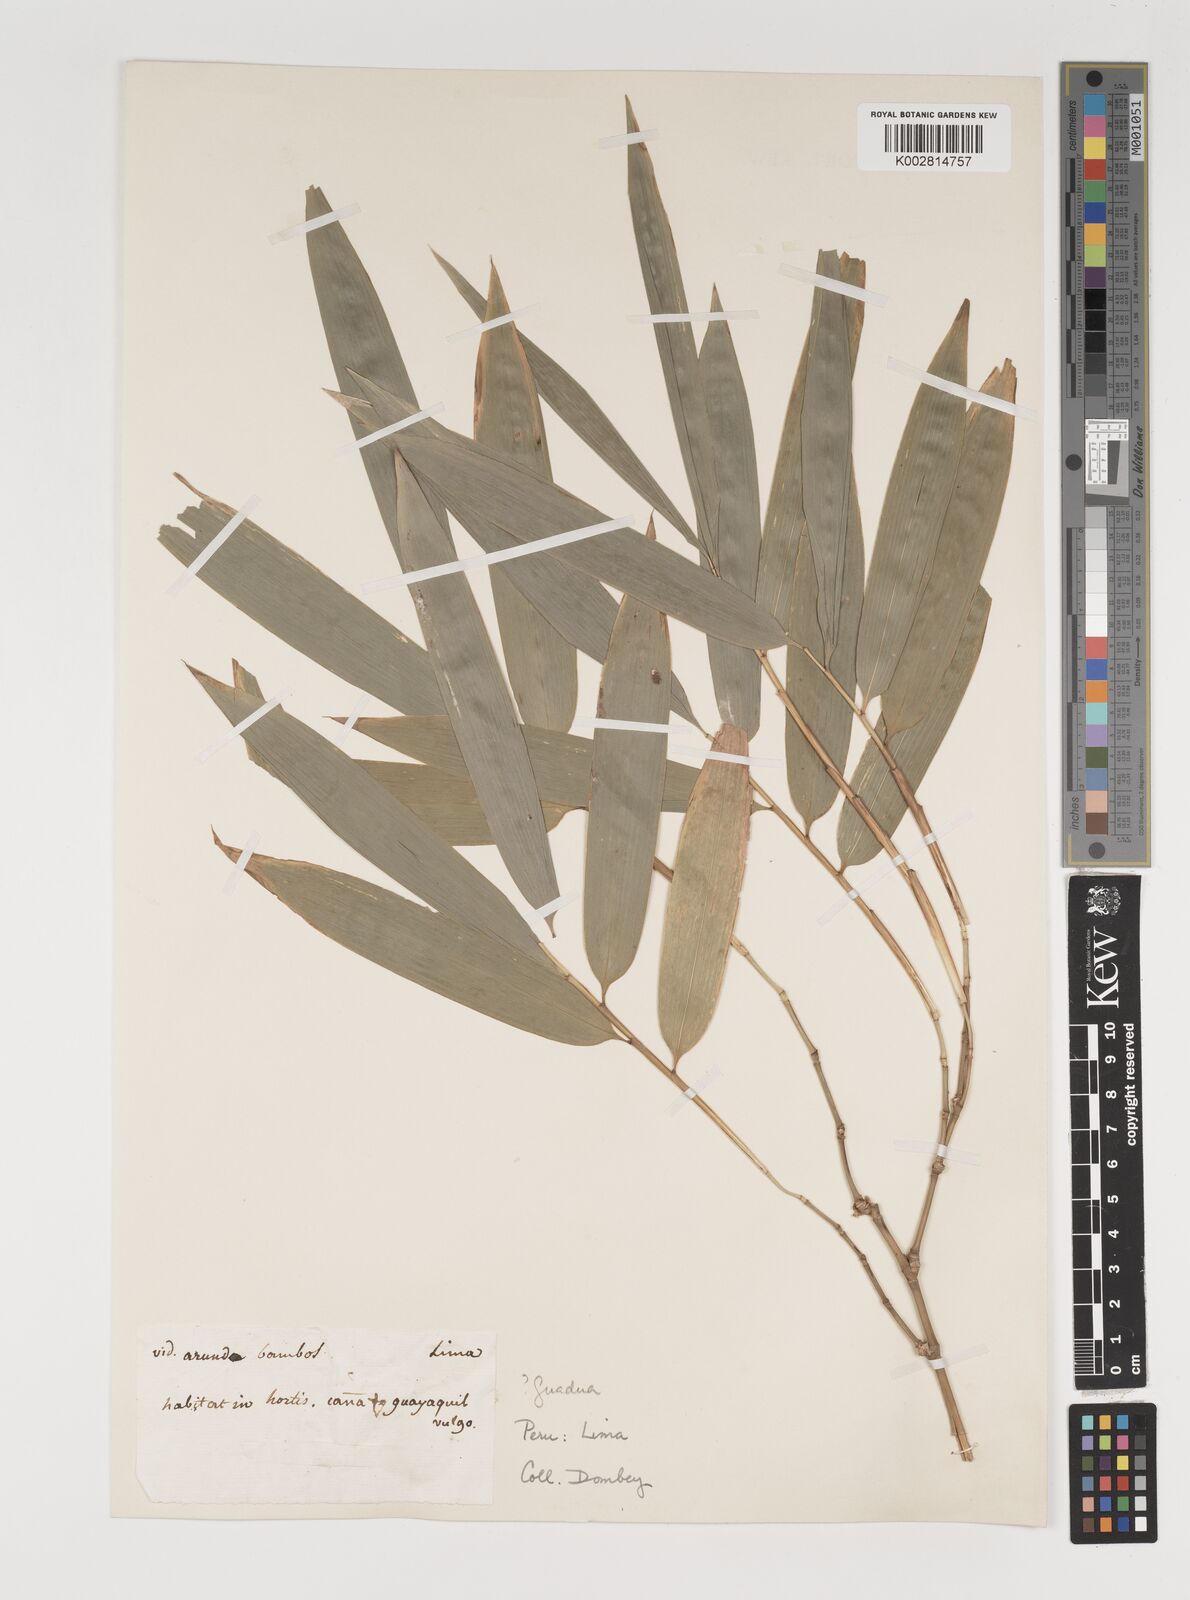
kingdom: Plantae
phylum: Tracheophyta
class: Liliopsida
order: Poales
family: Poaceae
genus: Guadua
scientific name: Guadua
